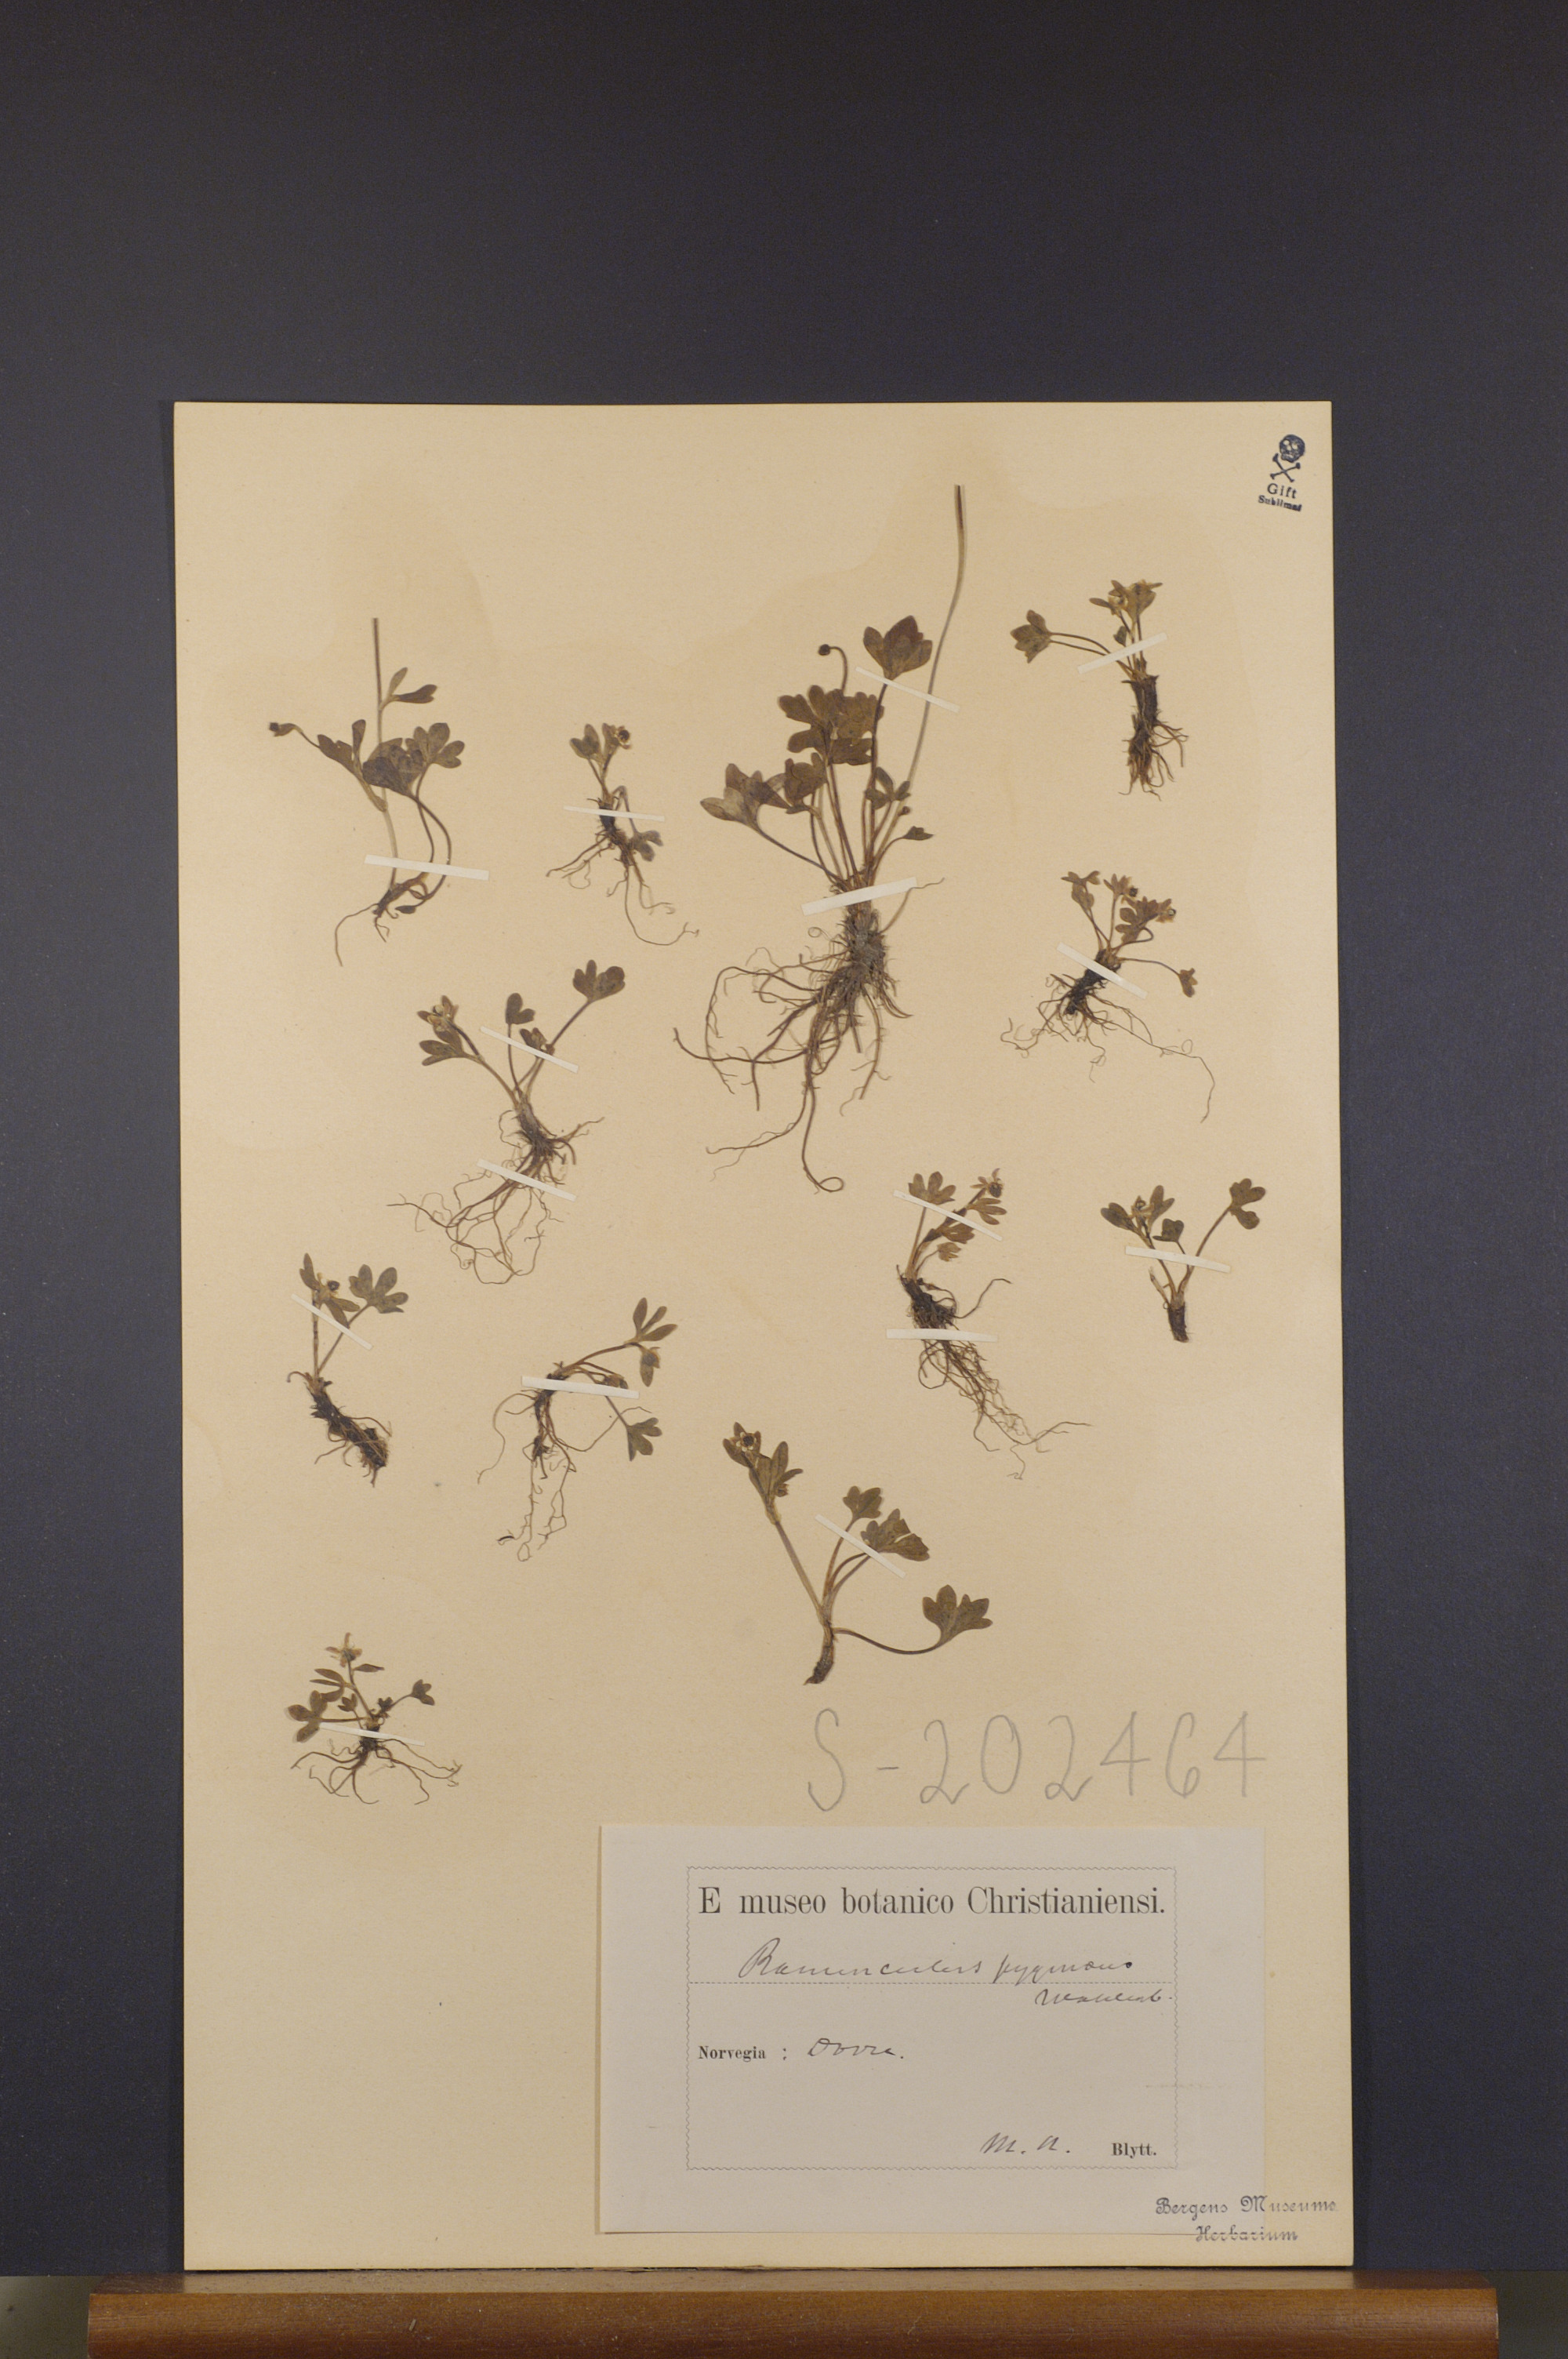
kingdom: Plantae
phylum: Tracheophyta
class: Magnoliopsida
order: Ranunculales
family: Ranunculaceae
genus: Ranunculus
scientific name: Ranunculus pygmaeus
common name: Dwarf buttercup
